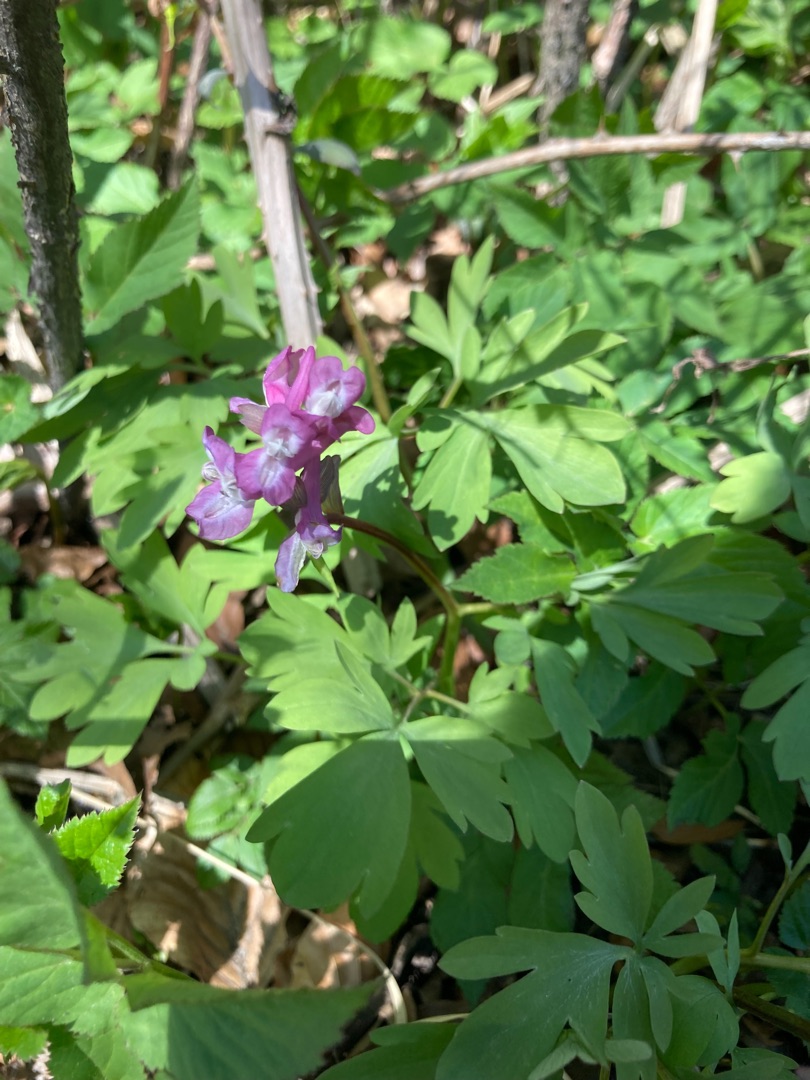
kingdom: Plantae
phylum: Tracheophyta
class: Magnoliopsida
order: Ranunculales
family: Papaveraceae
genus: Corydalis
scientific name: Corydalis cava
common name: Hulrodet lærkespore
